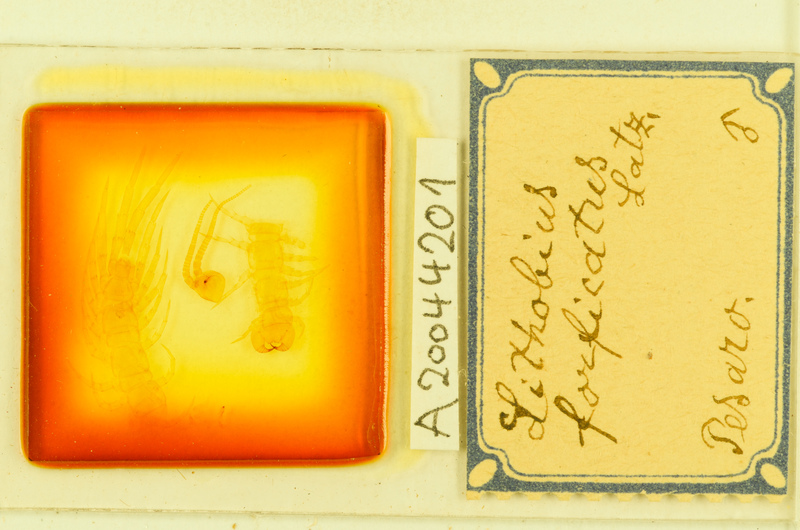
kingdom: Animalia
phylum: Arthropoda
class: Chilopoda
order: Lithobiomorpha
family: Lithobiidae
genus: Lithobius
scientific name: Lithobius forficatus
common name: Centipede
